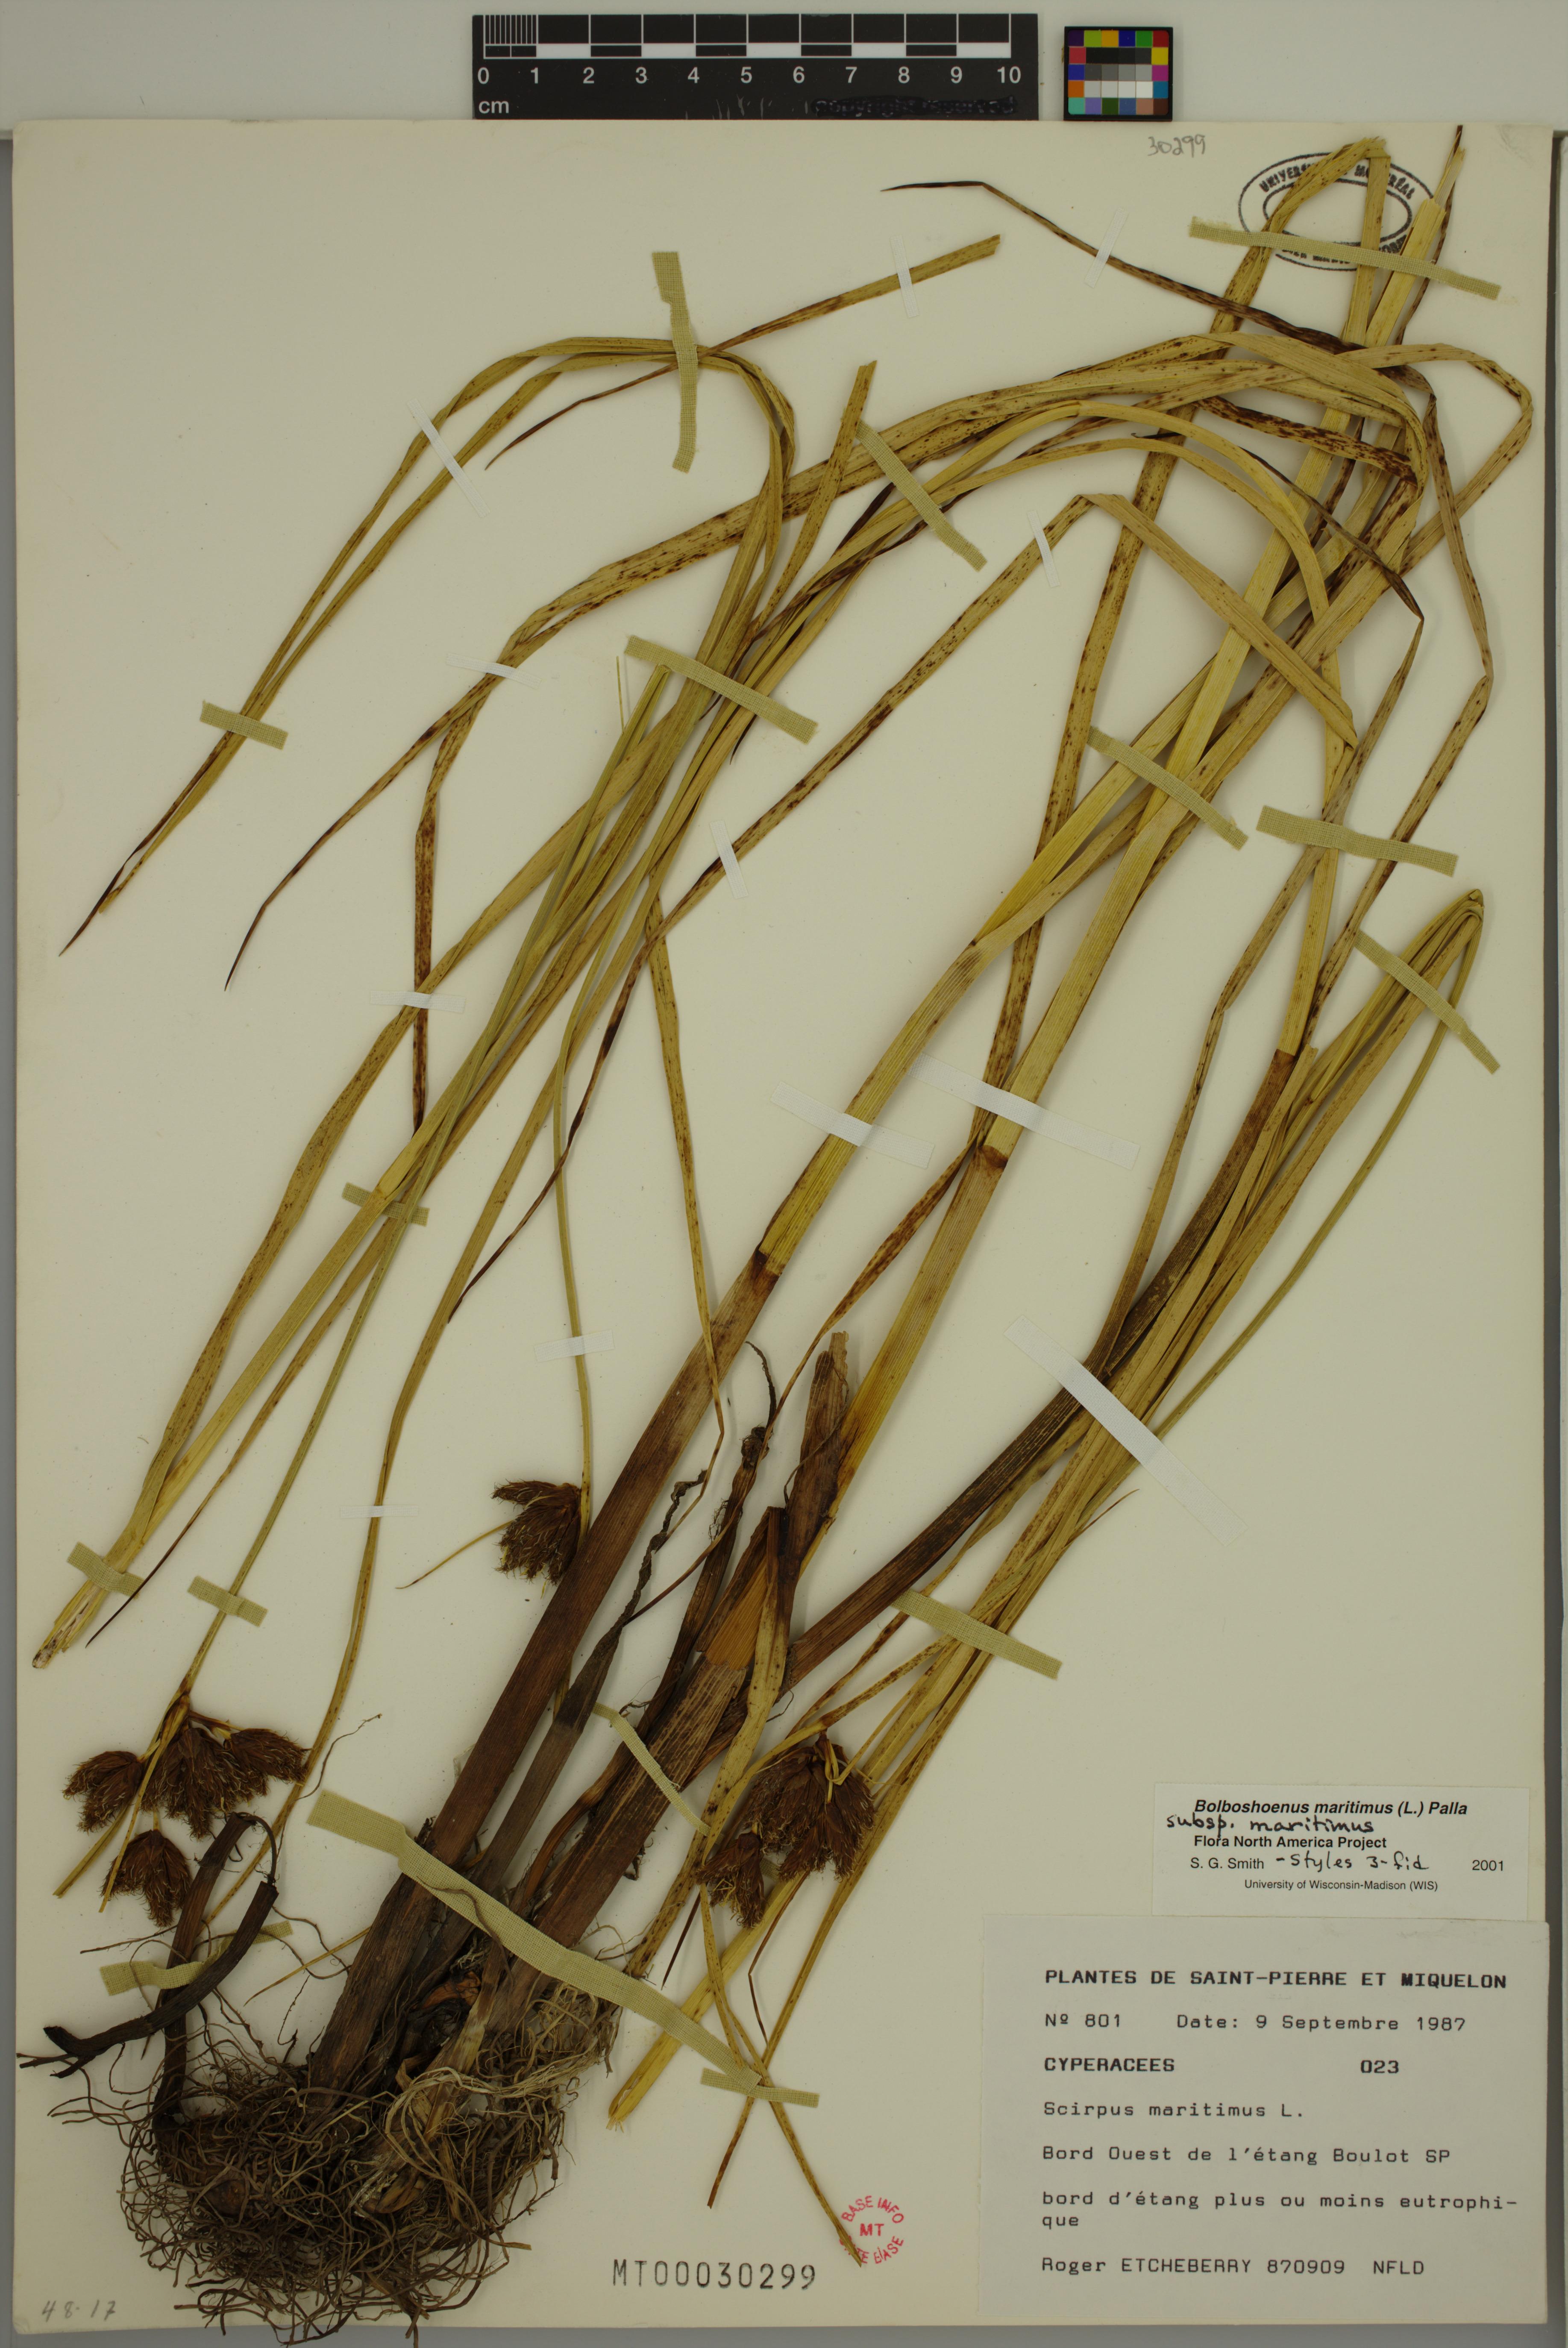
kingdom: Plantae
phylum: Tracheophyta
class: Liliopsida
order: Poales
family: Cyperaceae
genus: Bolboschoenus
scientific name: Bolboschoenus maritimus
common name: Sea club-rush
